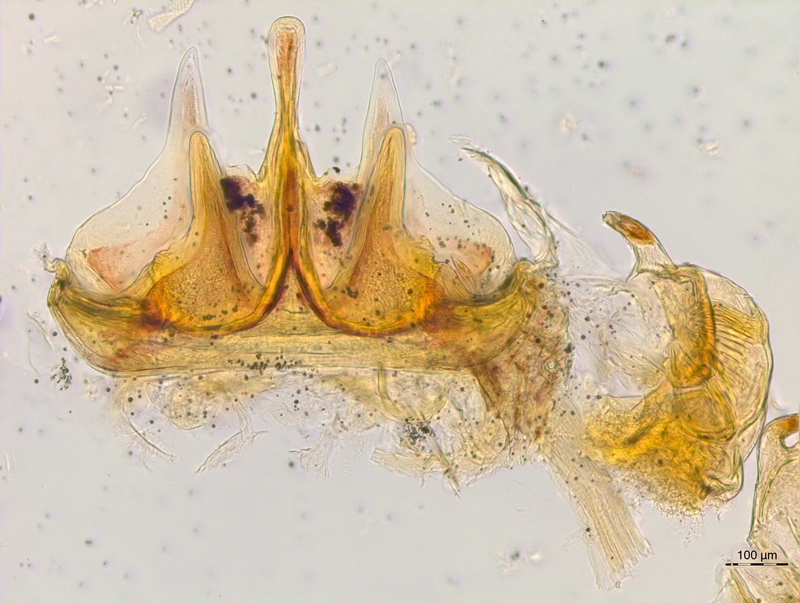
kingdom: Animalia
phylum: Arthropoda
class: Diplopoda
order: Chordeumatida
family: Craspedosomatidae
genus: Craspedosoma
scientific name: Craspedosoma brentanum
